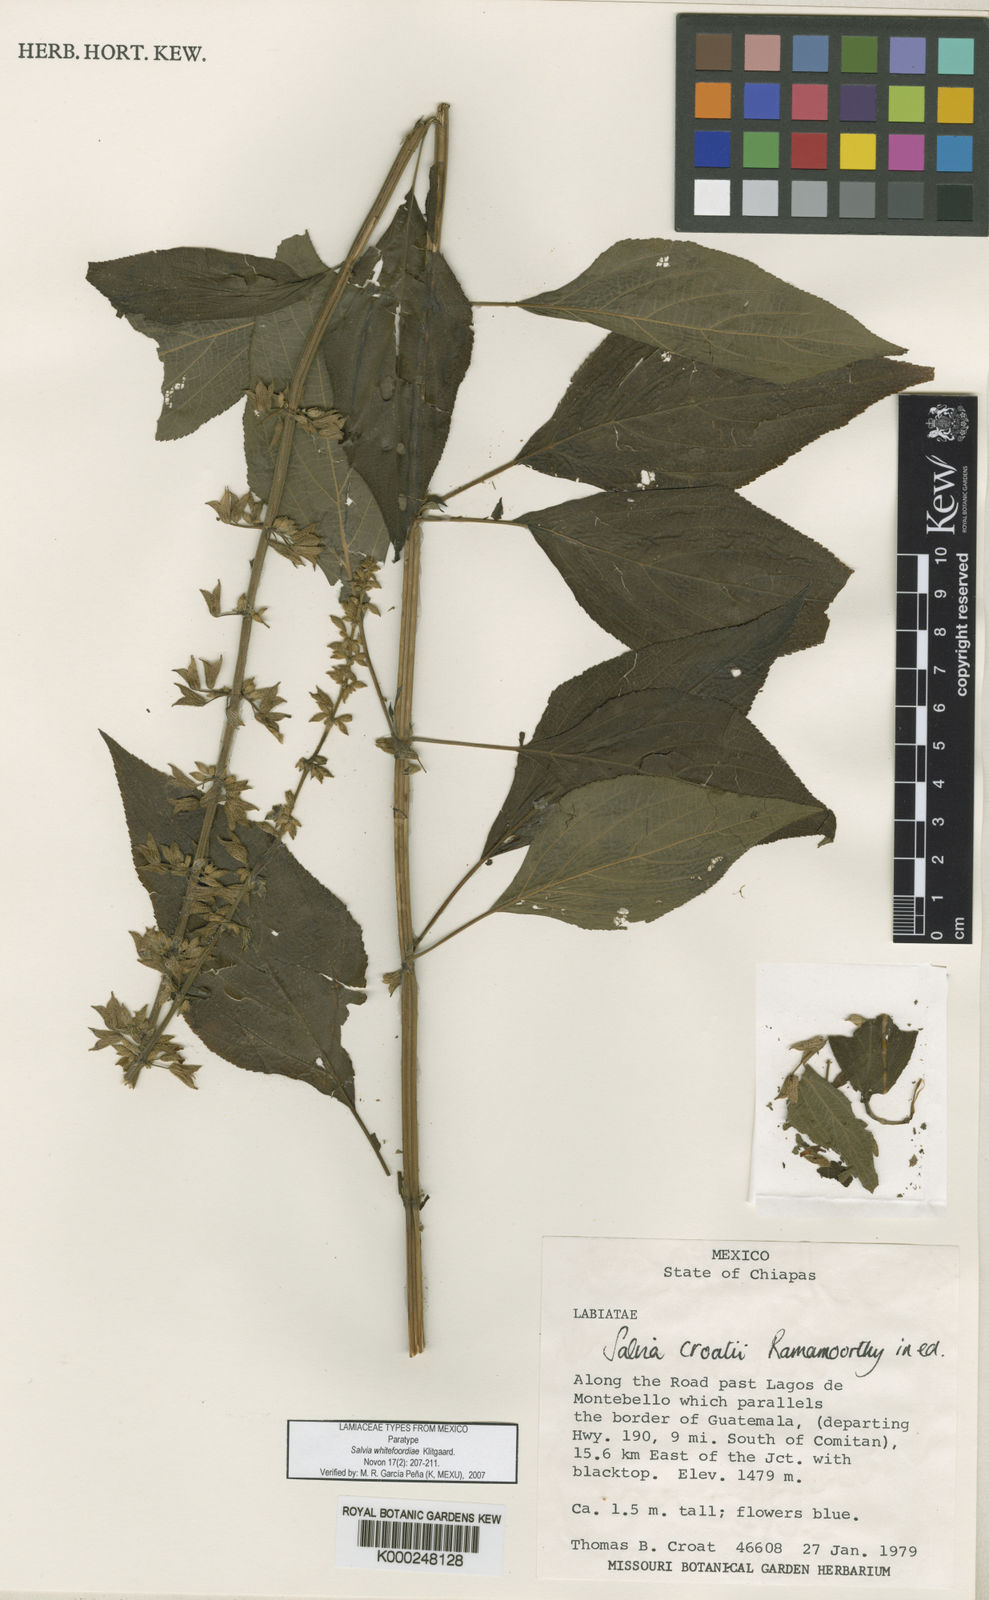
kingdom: Plantae
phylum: Tracheophyta
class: Magnoliopsida
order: Lamiales
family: Lamiaceae
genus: Salvia
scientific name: Salvia
